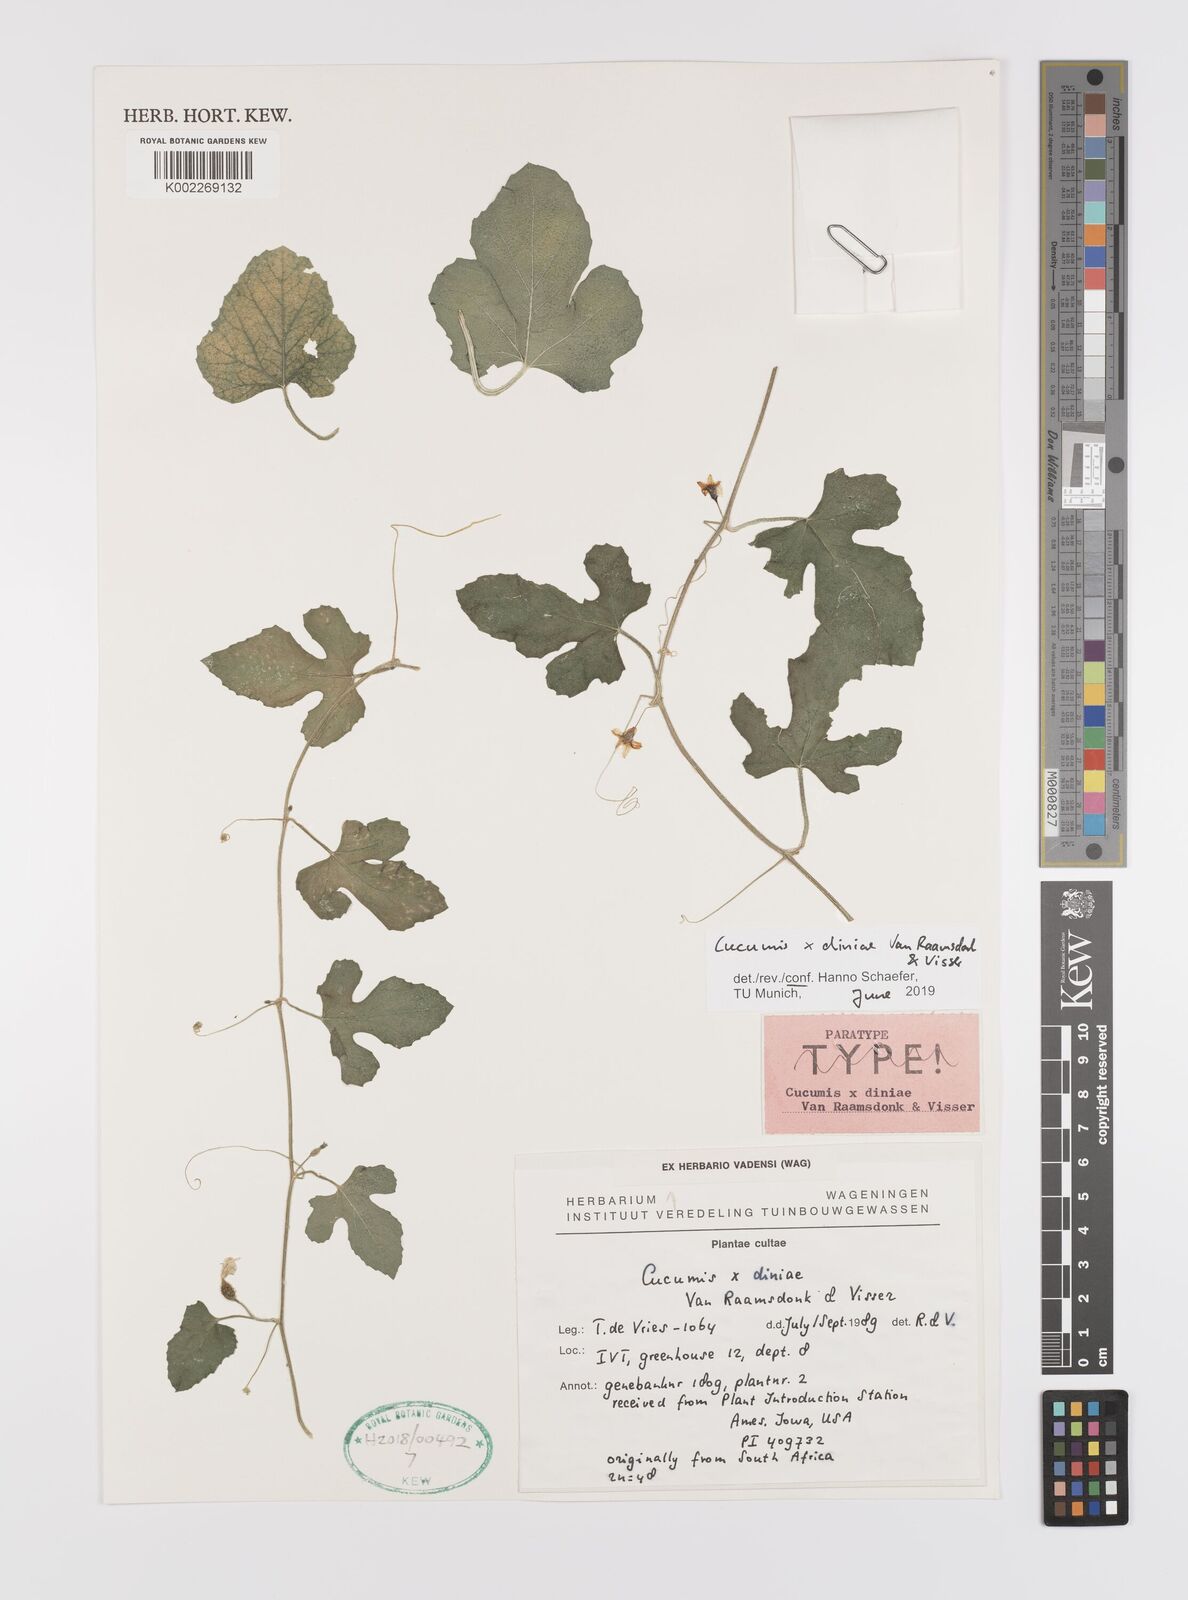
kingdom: Plantae
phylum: Tracheophyta
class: Magnoliopsida
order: Cucurbitales
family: Cucurbitaceae
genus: Cucumis
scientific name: Cucumis zeyheri
